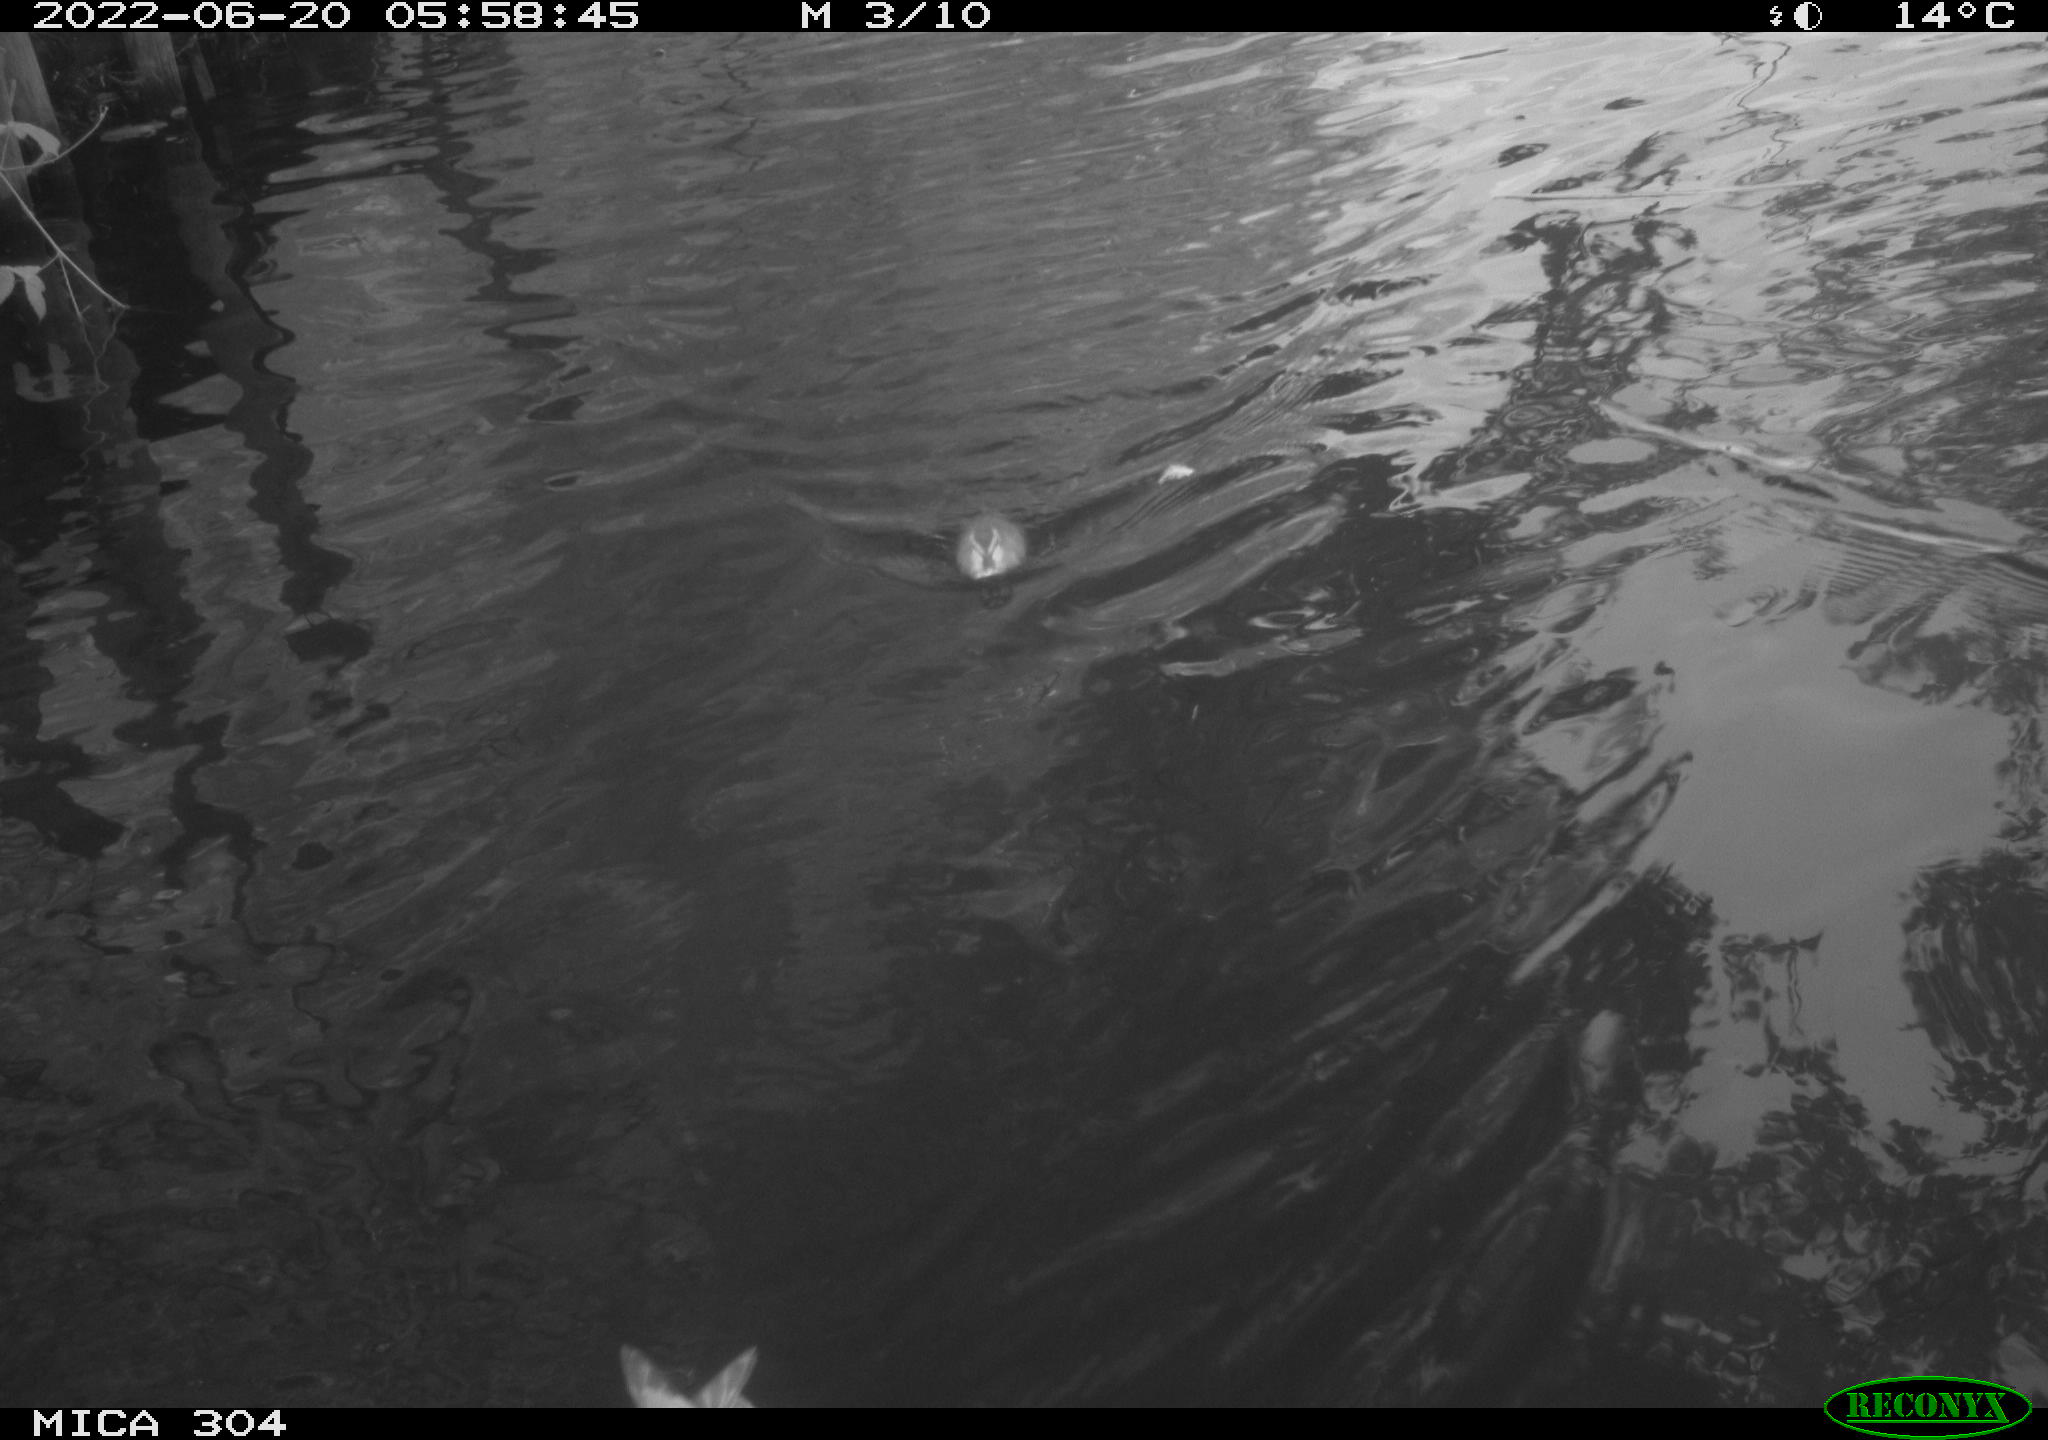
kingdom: Animalia
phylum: Chordata
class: Aves
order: Anseriformes
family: Anatidae
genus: Anas
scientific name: Anas platyrhynchos
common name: Mallard
